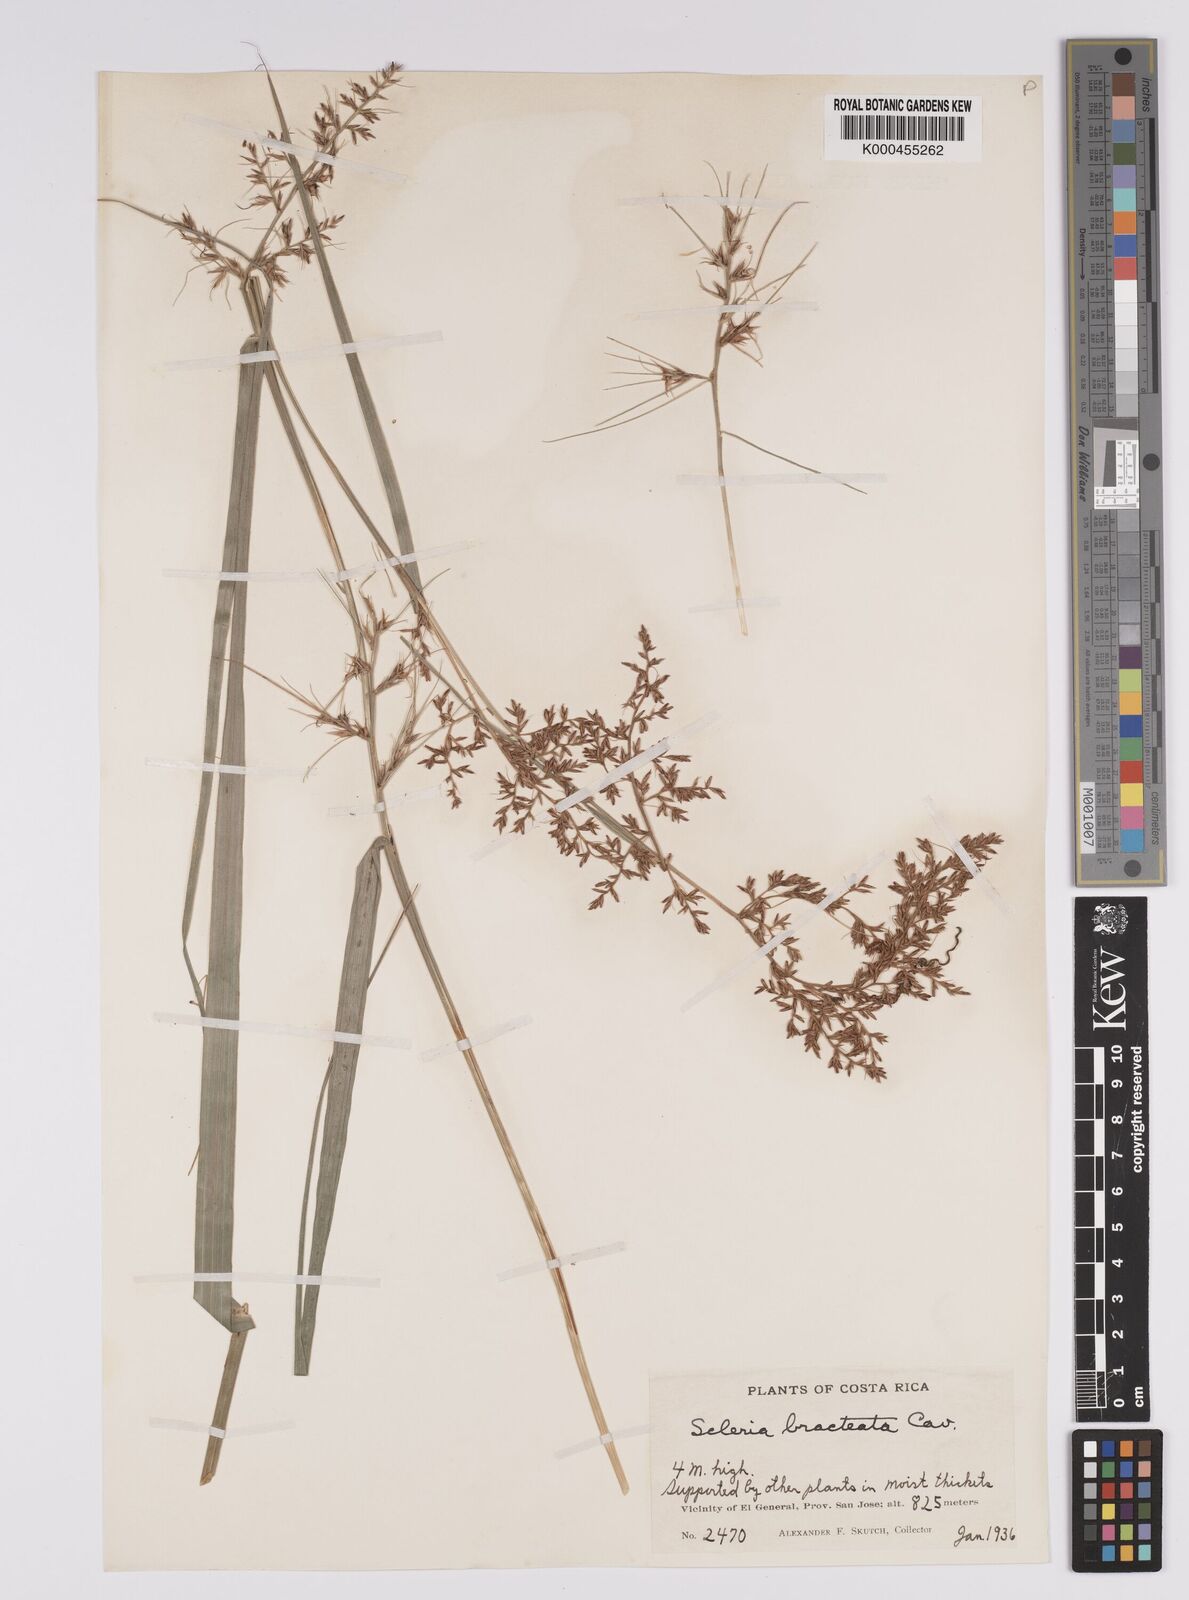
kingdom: Plantae
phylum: Tracheophyta
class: Liliopsida
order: Poales
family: Cyperaceae
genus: Scleria
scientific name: Scleria bracteata
